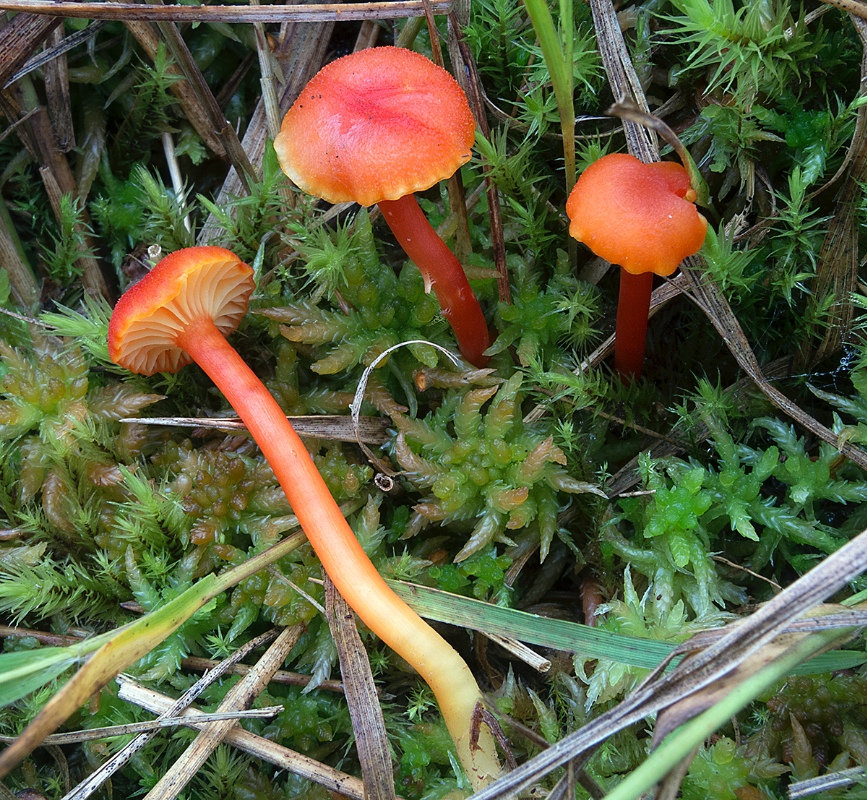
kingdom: Fungi
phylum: Basidiomycota
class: Agaricomycetes
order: Agaricales
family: Hygrophoraceae
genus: Hygrocybe
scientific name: Hygrocybe miniata
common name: mønje-vokshat
